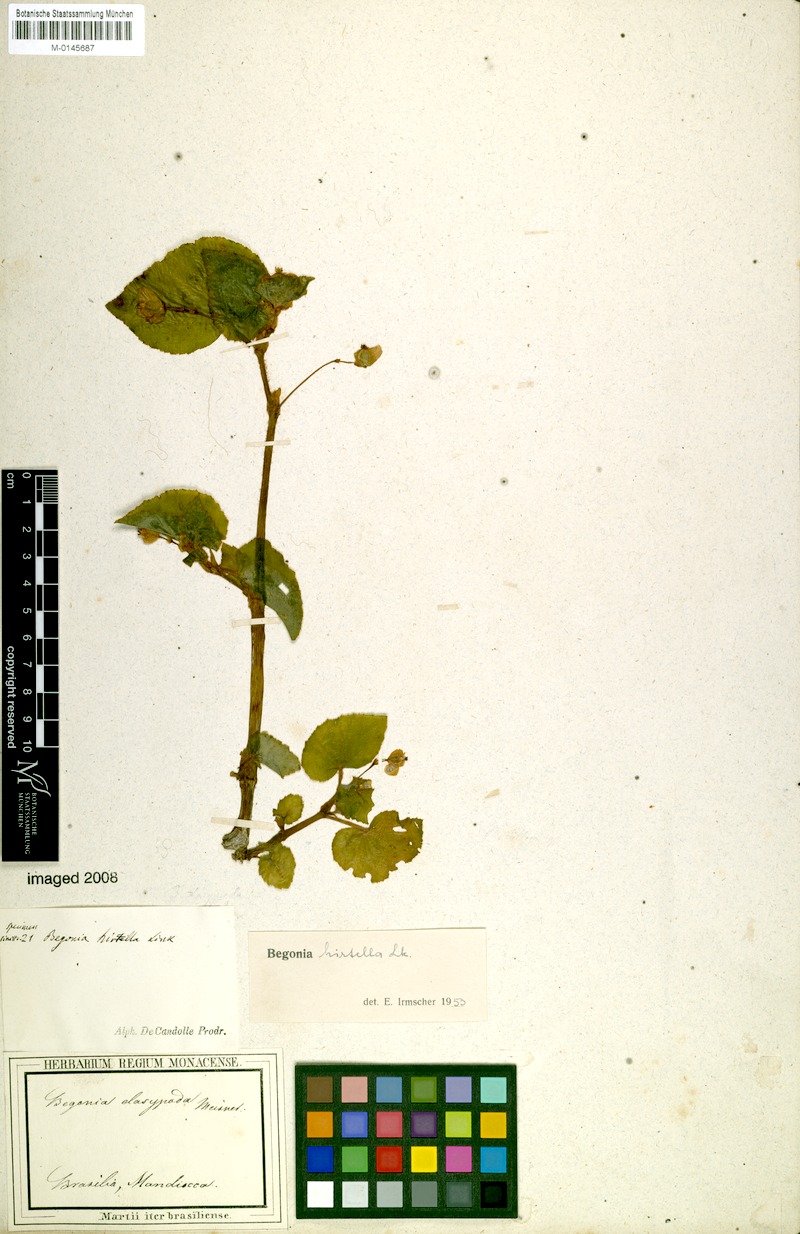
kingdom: Plantae
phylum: Tracheophyta
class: Magnoliopsida
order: Cucurbitales
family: Begoniaceae
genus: Begonia
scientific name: Begonia hirtella
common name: Brazilian begonia
